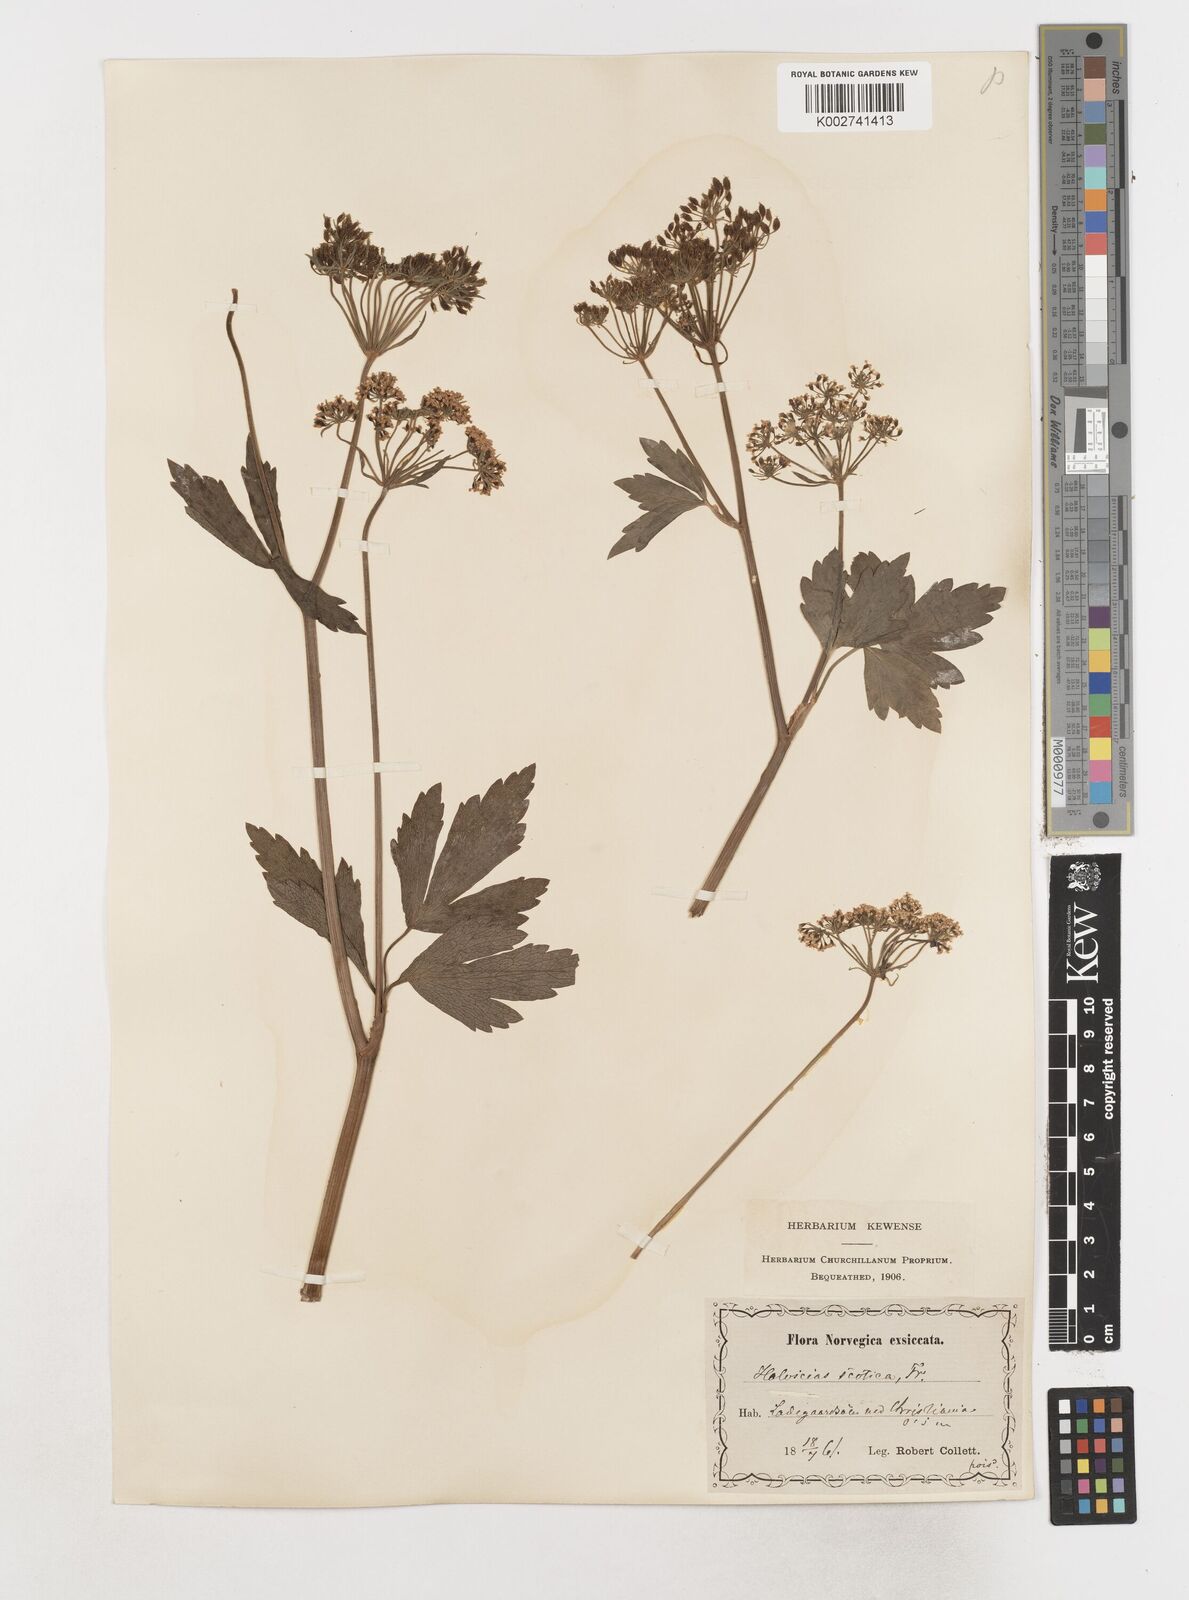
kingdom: Plantae
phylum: Tracheophyta
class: Magnoliopsida
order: Apiales
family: Apiaceae
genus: Ligusticum
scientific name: Ligusticum scothicum
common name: Beach lovage
